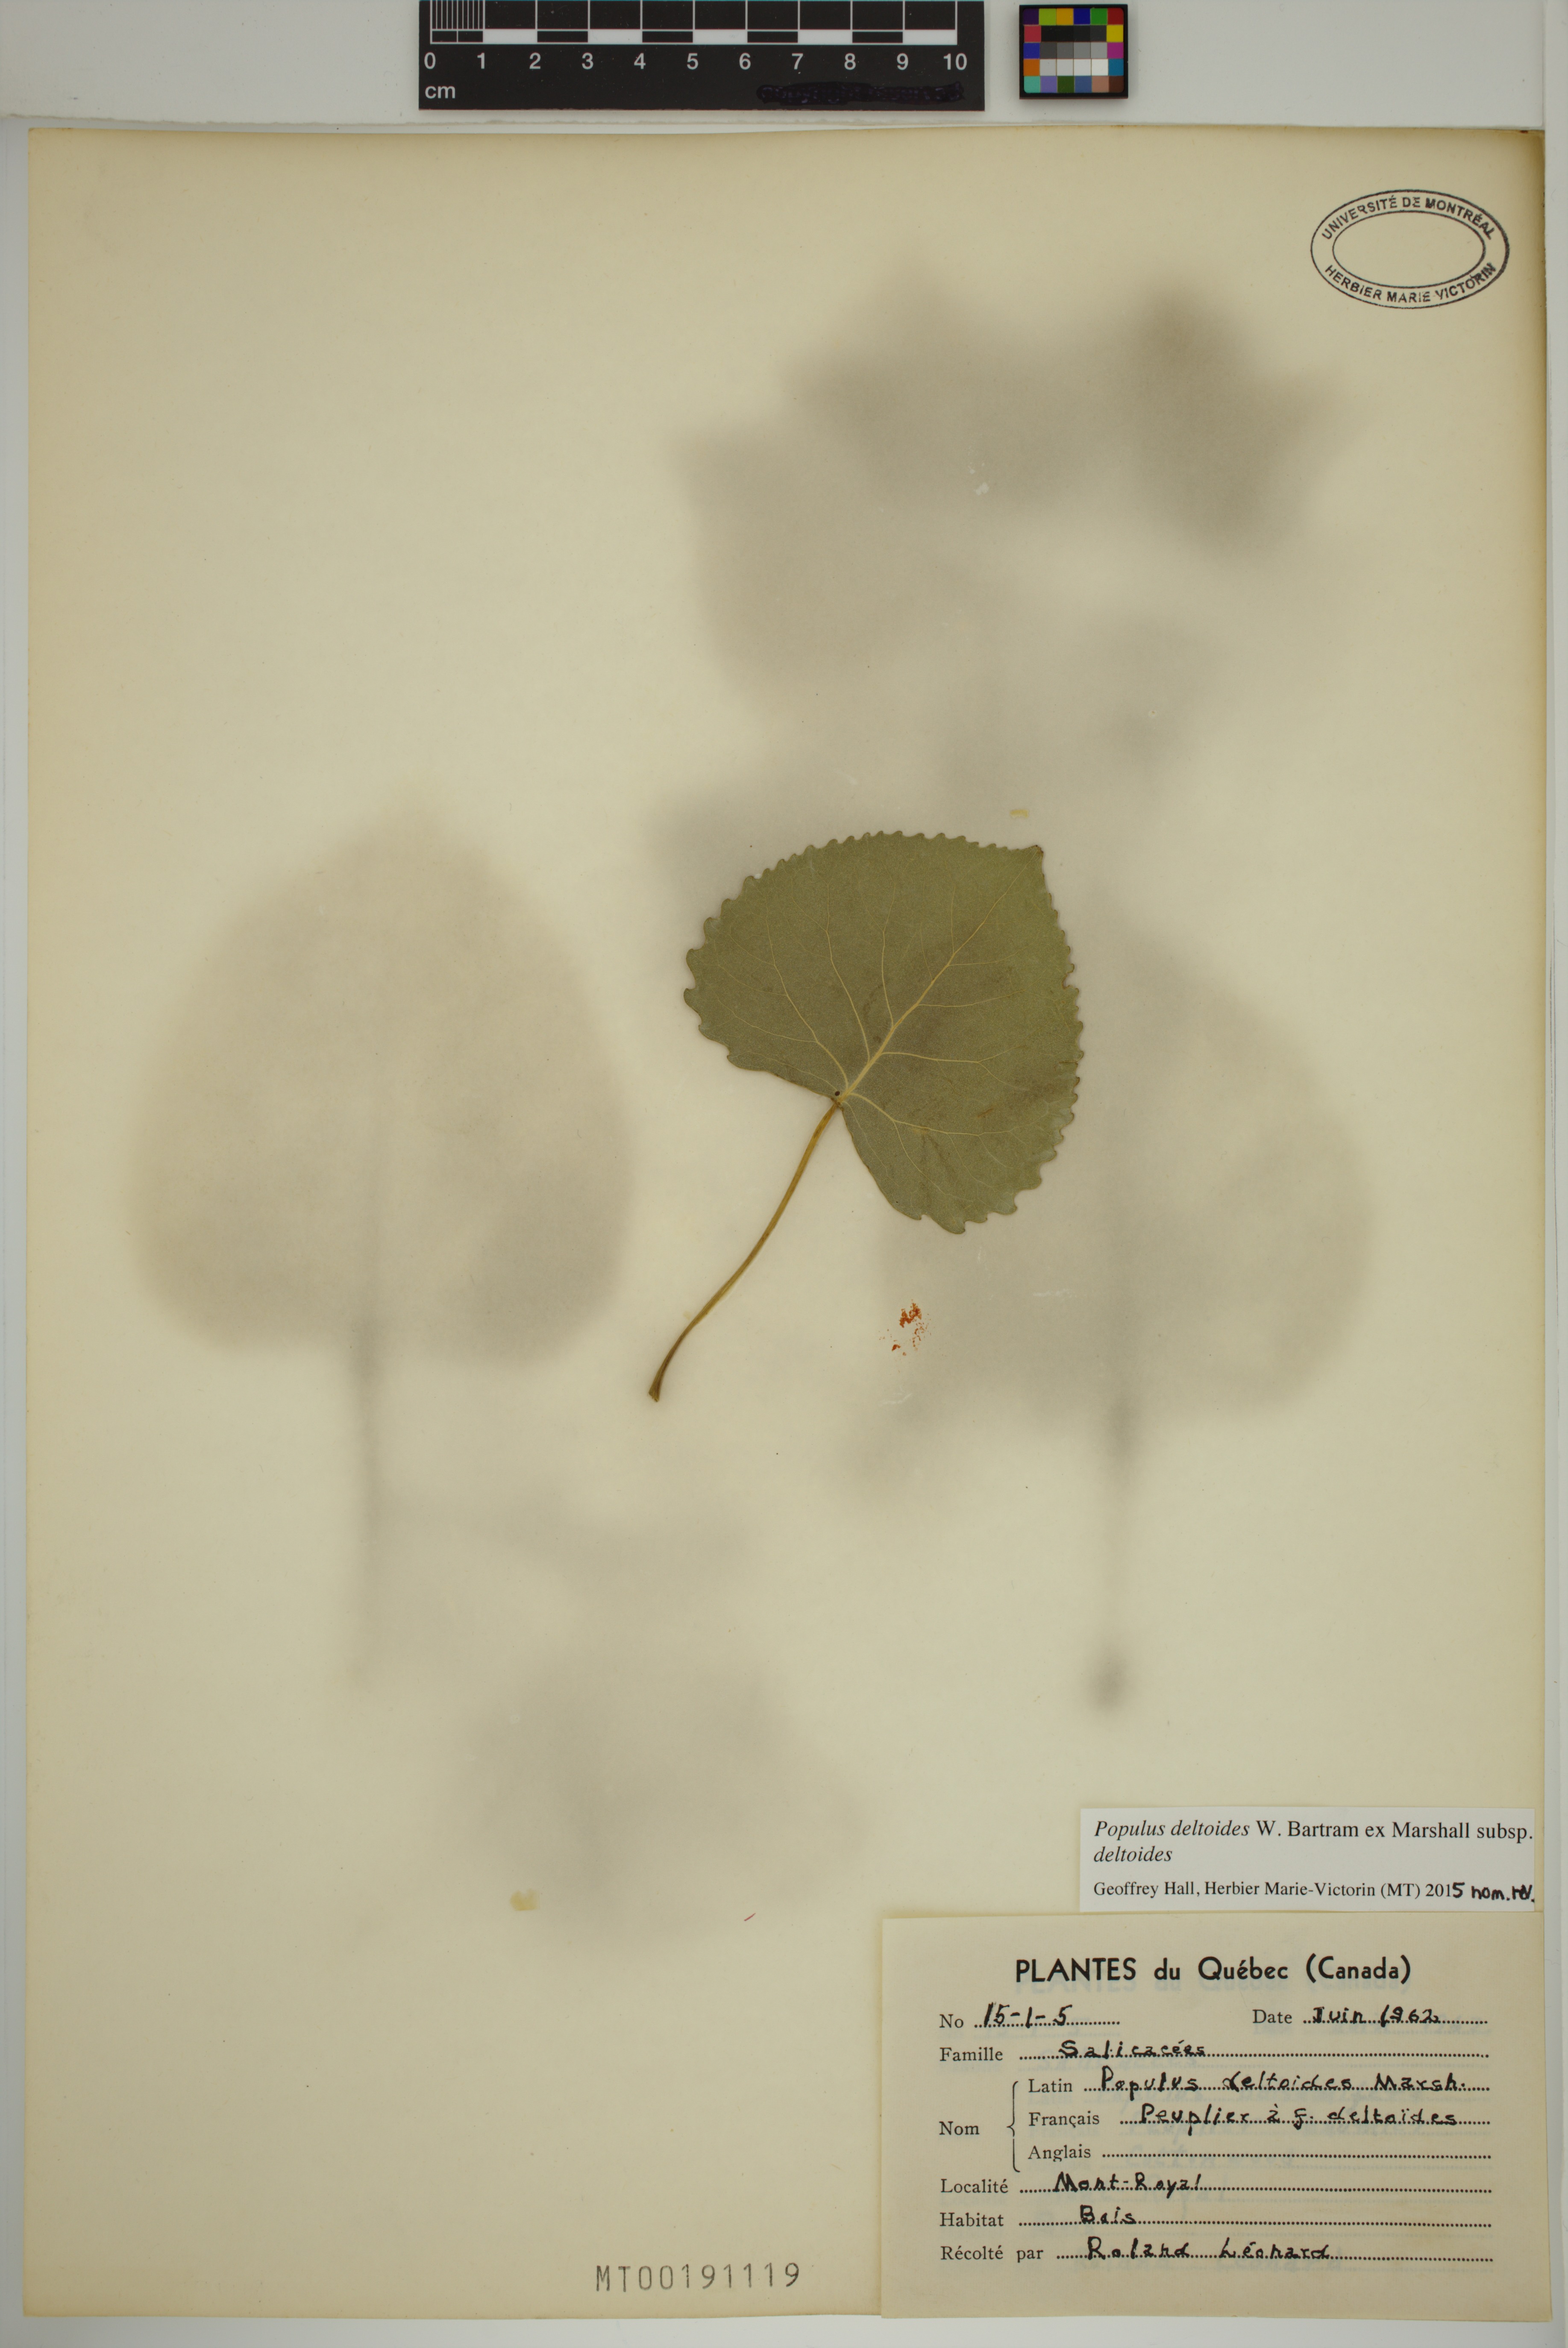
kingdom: Plantae
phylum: Tracheophyta
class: Magnoliopsida
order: Malpighiales
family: Salicaceae
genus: Populus
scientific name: Populus deltoides
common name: Eastern cottonwood
